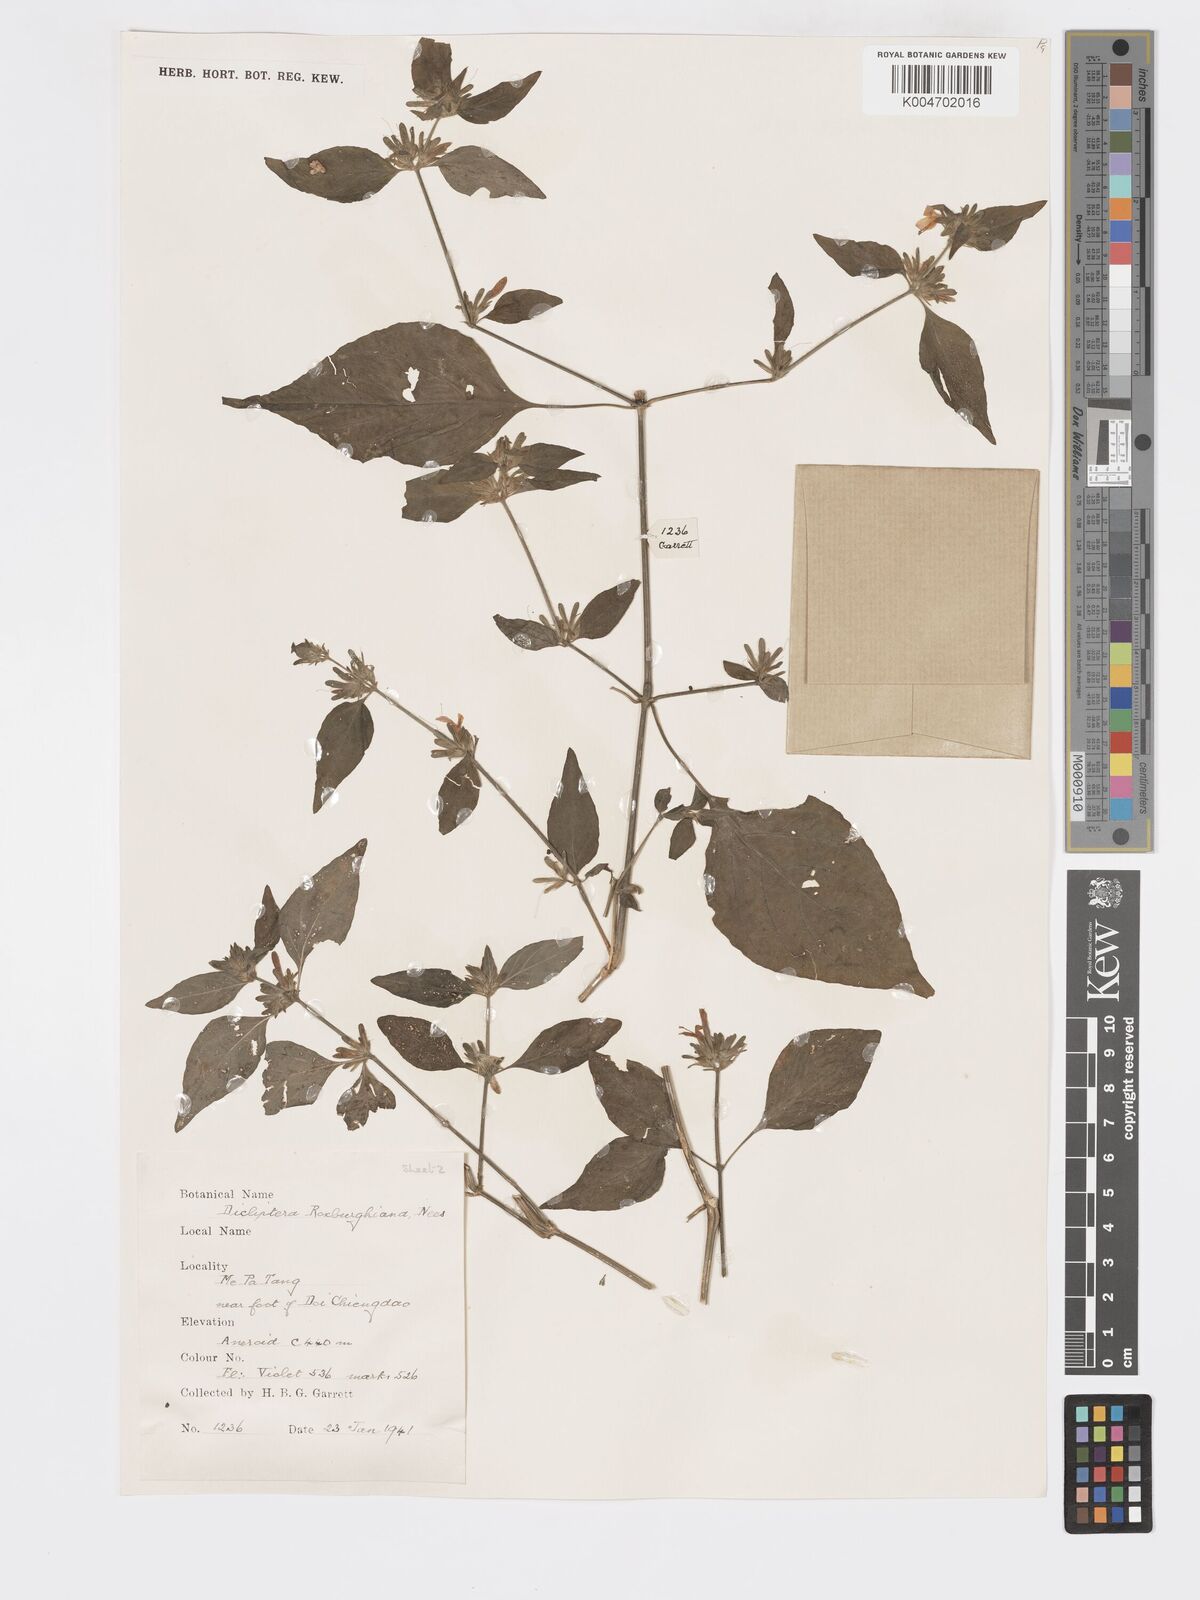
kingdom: Plantae
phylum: Tracheophyta
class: Magnoliopsida
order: Lamiales
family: Acanthaceae
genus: Dicliptera
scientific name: Dicliptera chinensis
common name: Chinese foldwing
